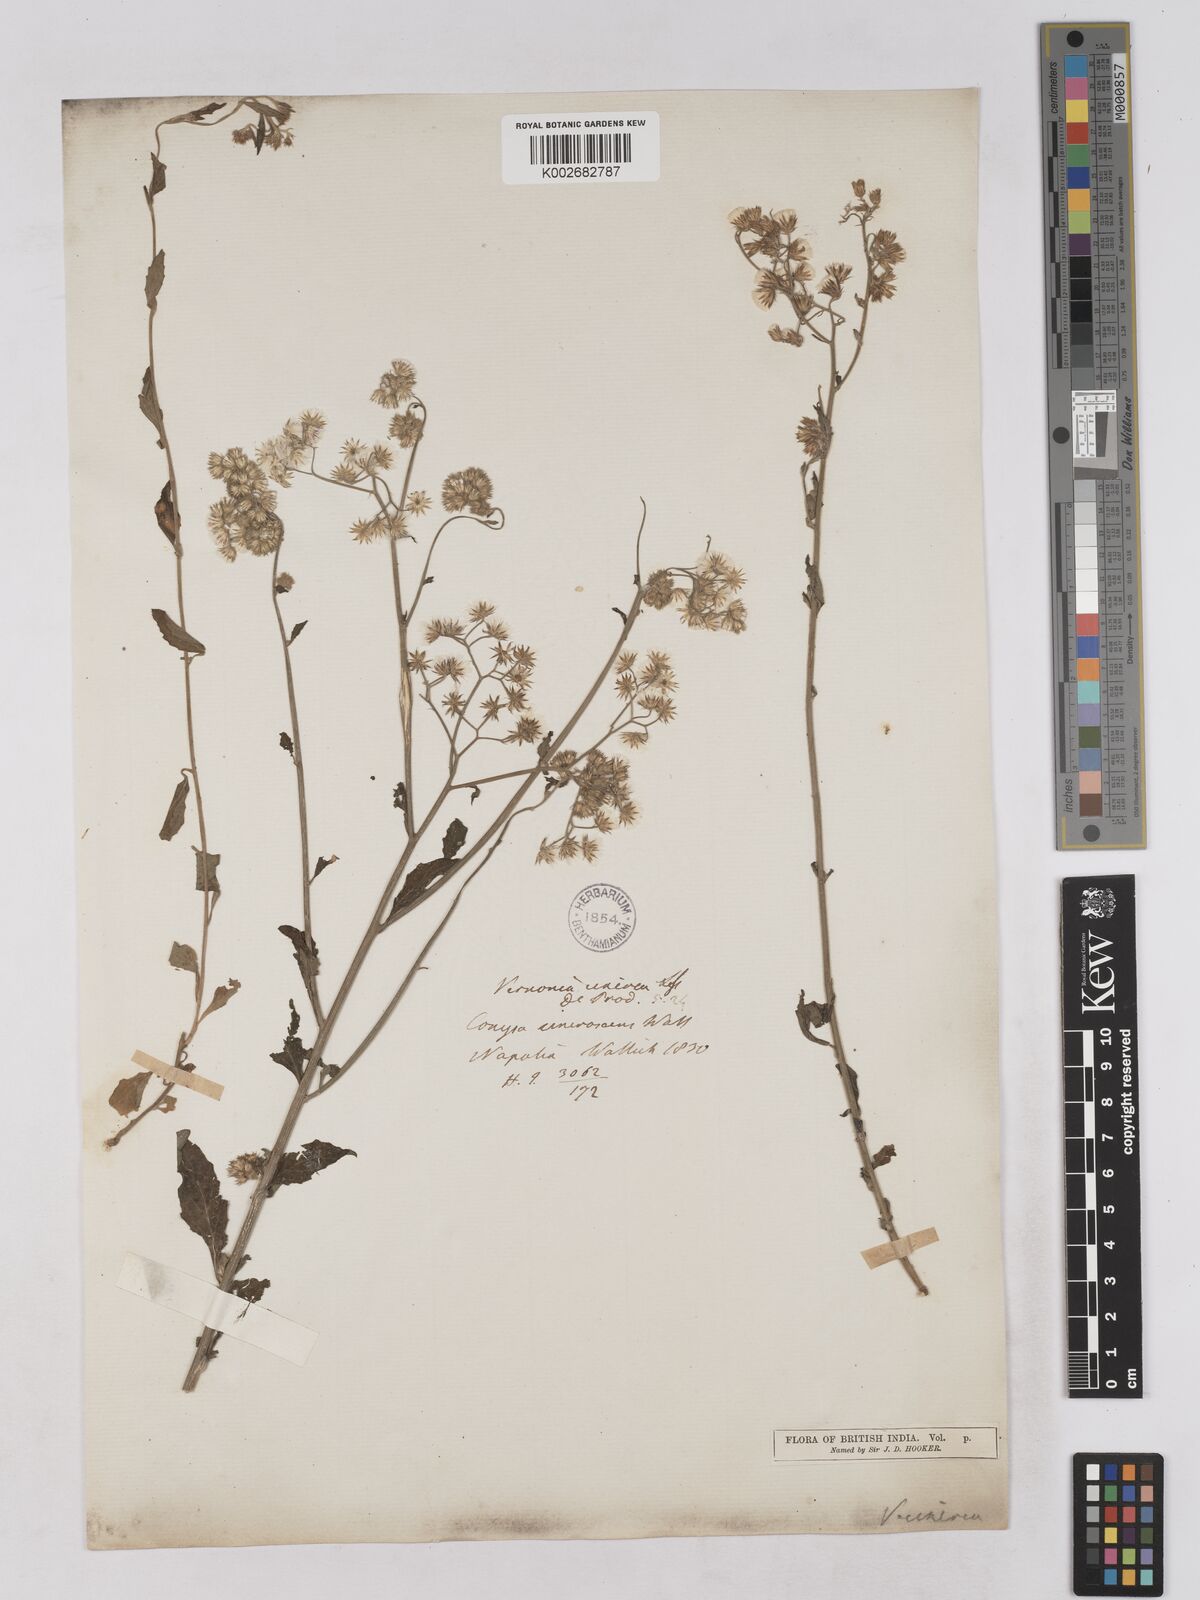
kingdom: Plantae
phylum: Tracheophyta
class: Magnoliopsida
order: Asterales
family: Asteraceae
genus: Cyanthillium
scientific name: Cyanthillium cinereum
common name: Little ironweed
